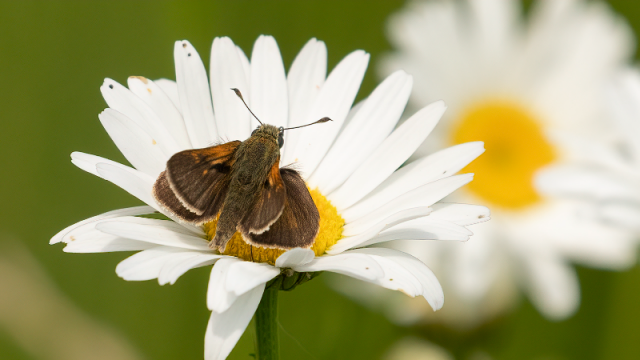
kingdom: Animalia
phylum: Arthropoda
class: Insecta
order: Lepidoptera
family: Hesperiidae
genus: Polites
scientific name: Polites themistocles
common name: Tawny-edged Skipper
